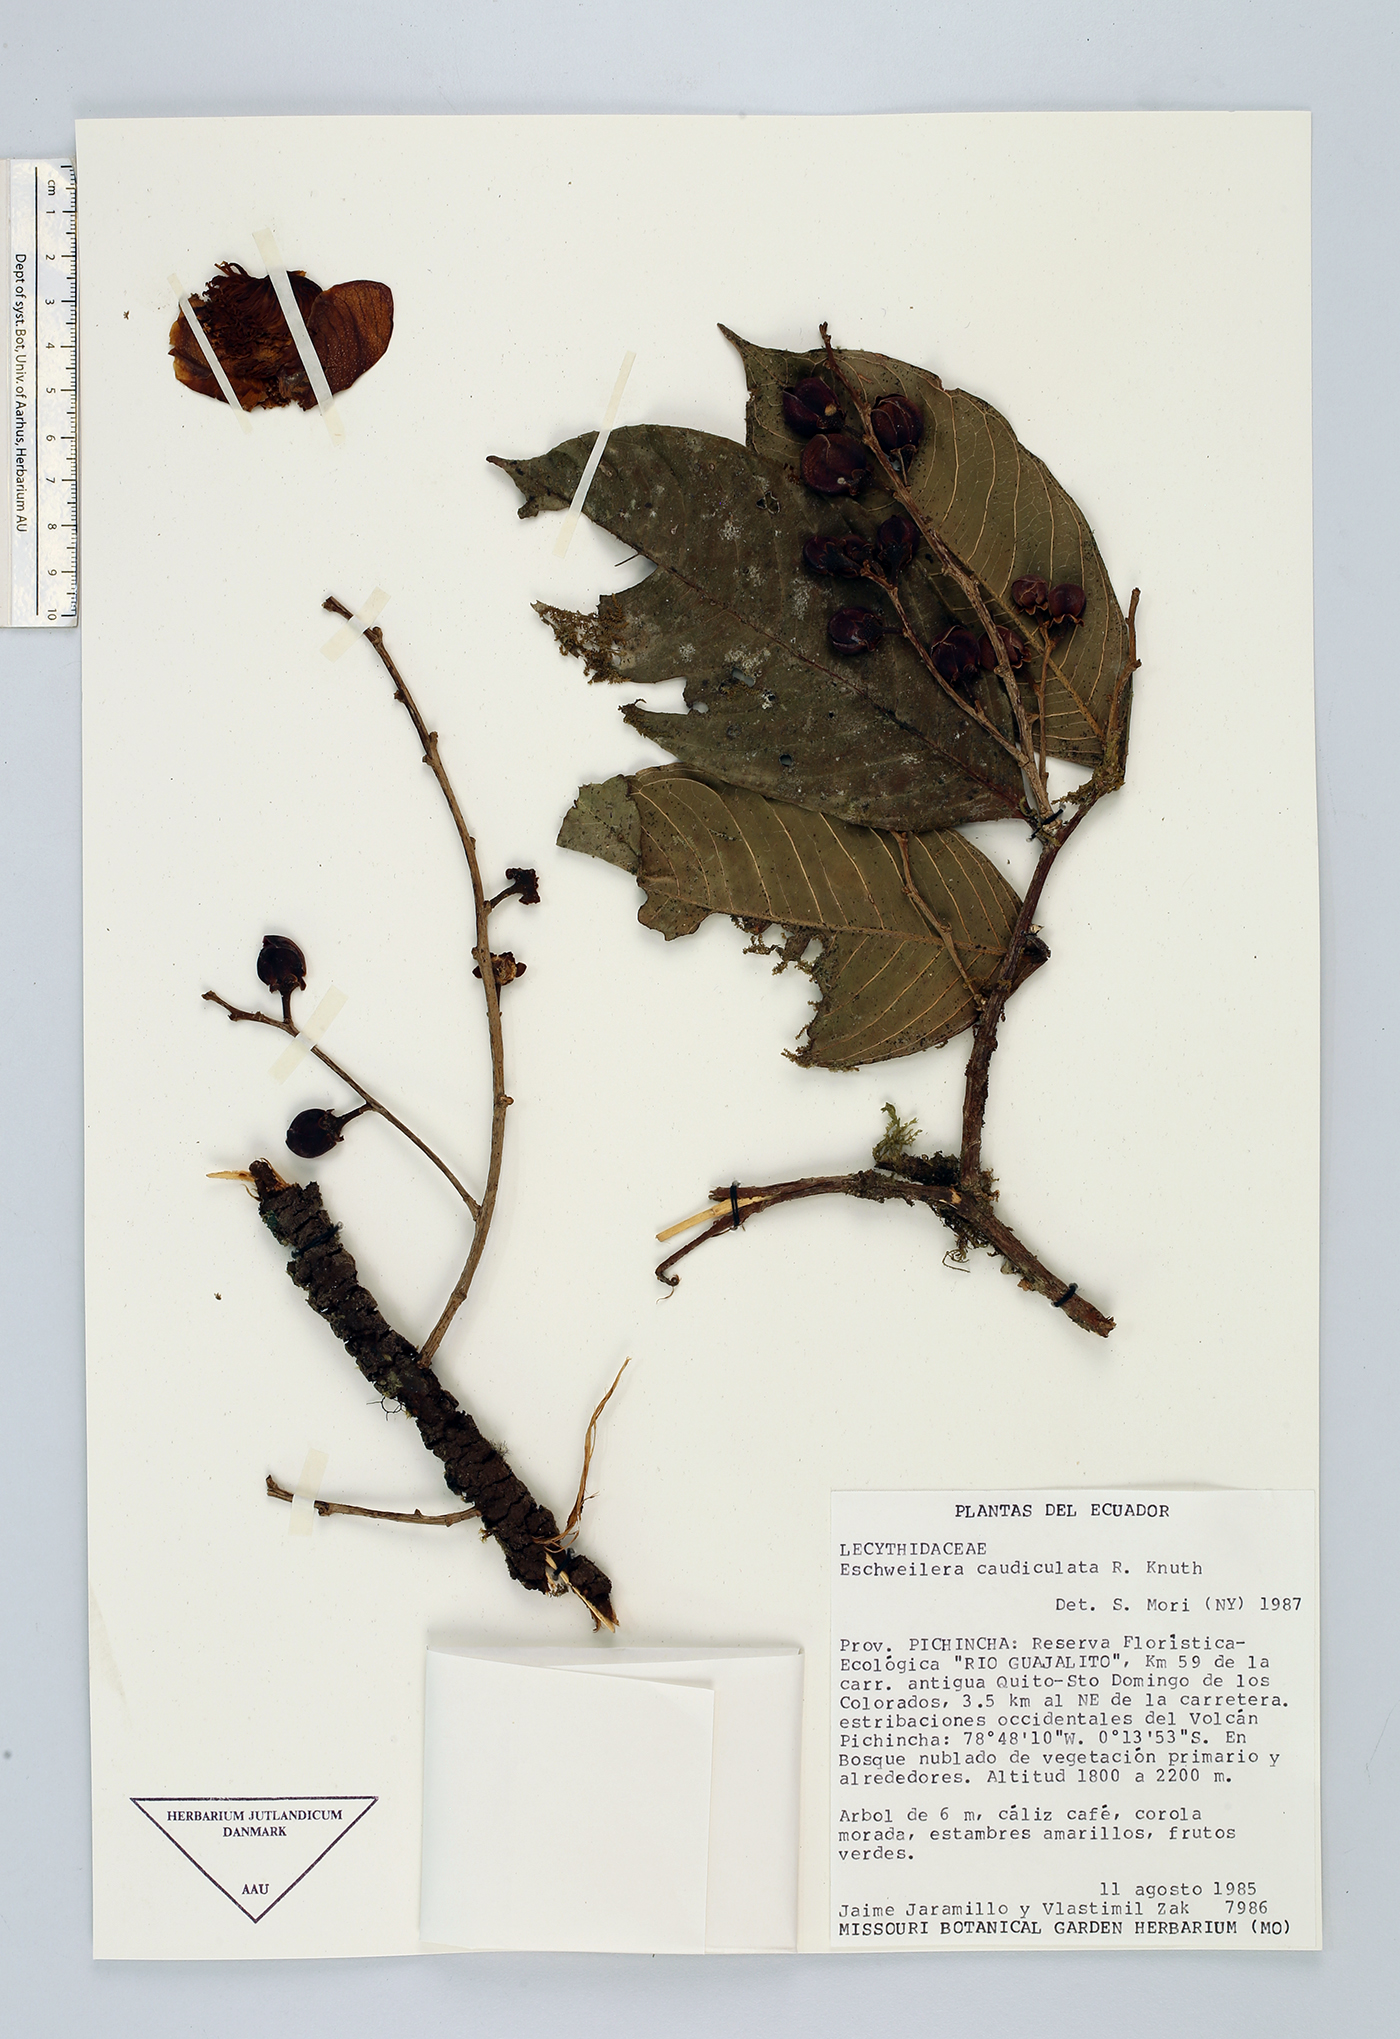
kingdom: Plantae
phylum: Tracheophyta
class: Magnoliopsida
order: Ericales
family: Lecythidaceae
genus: Eschweilera
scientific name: Eschweilera caudiculata
